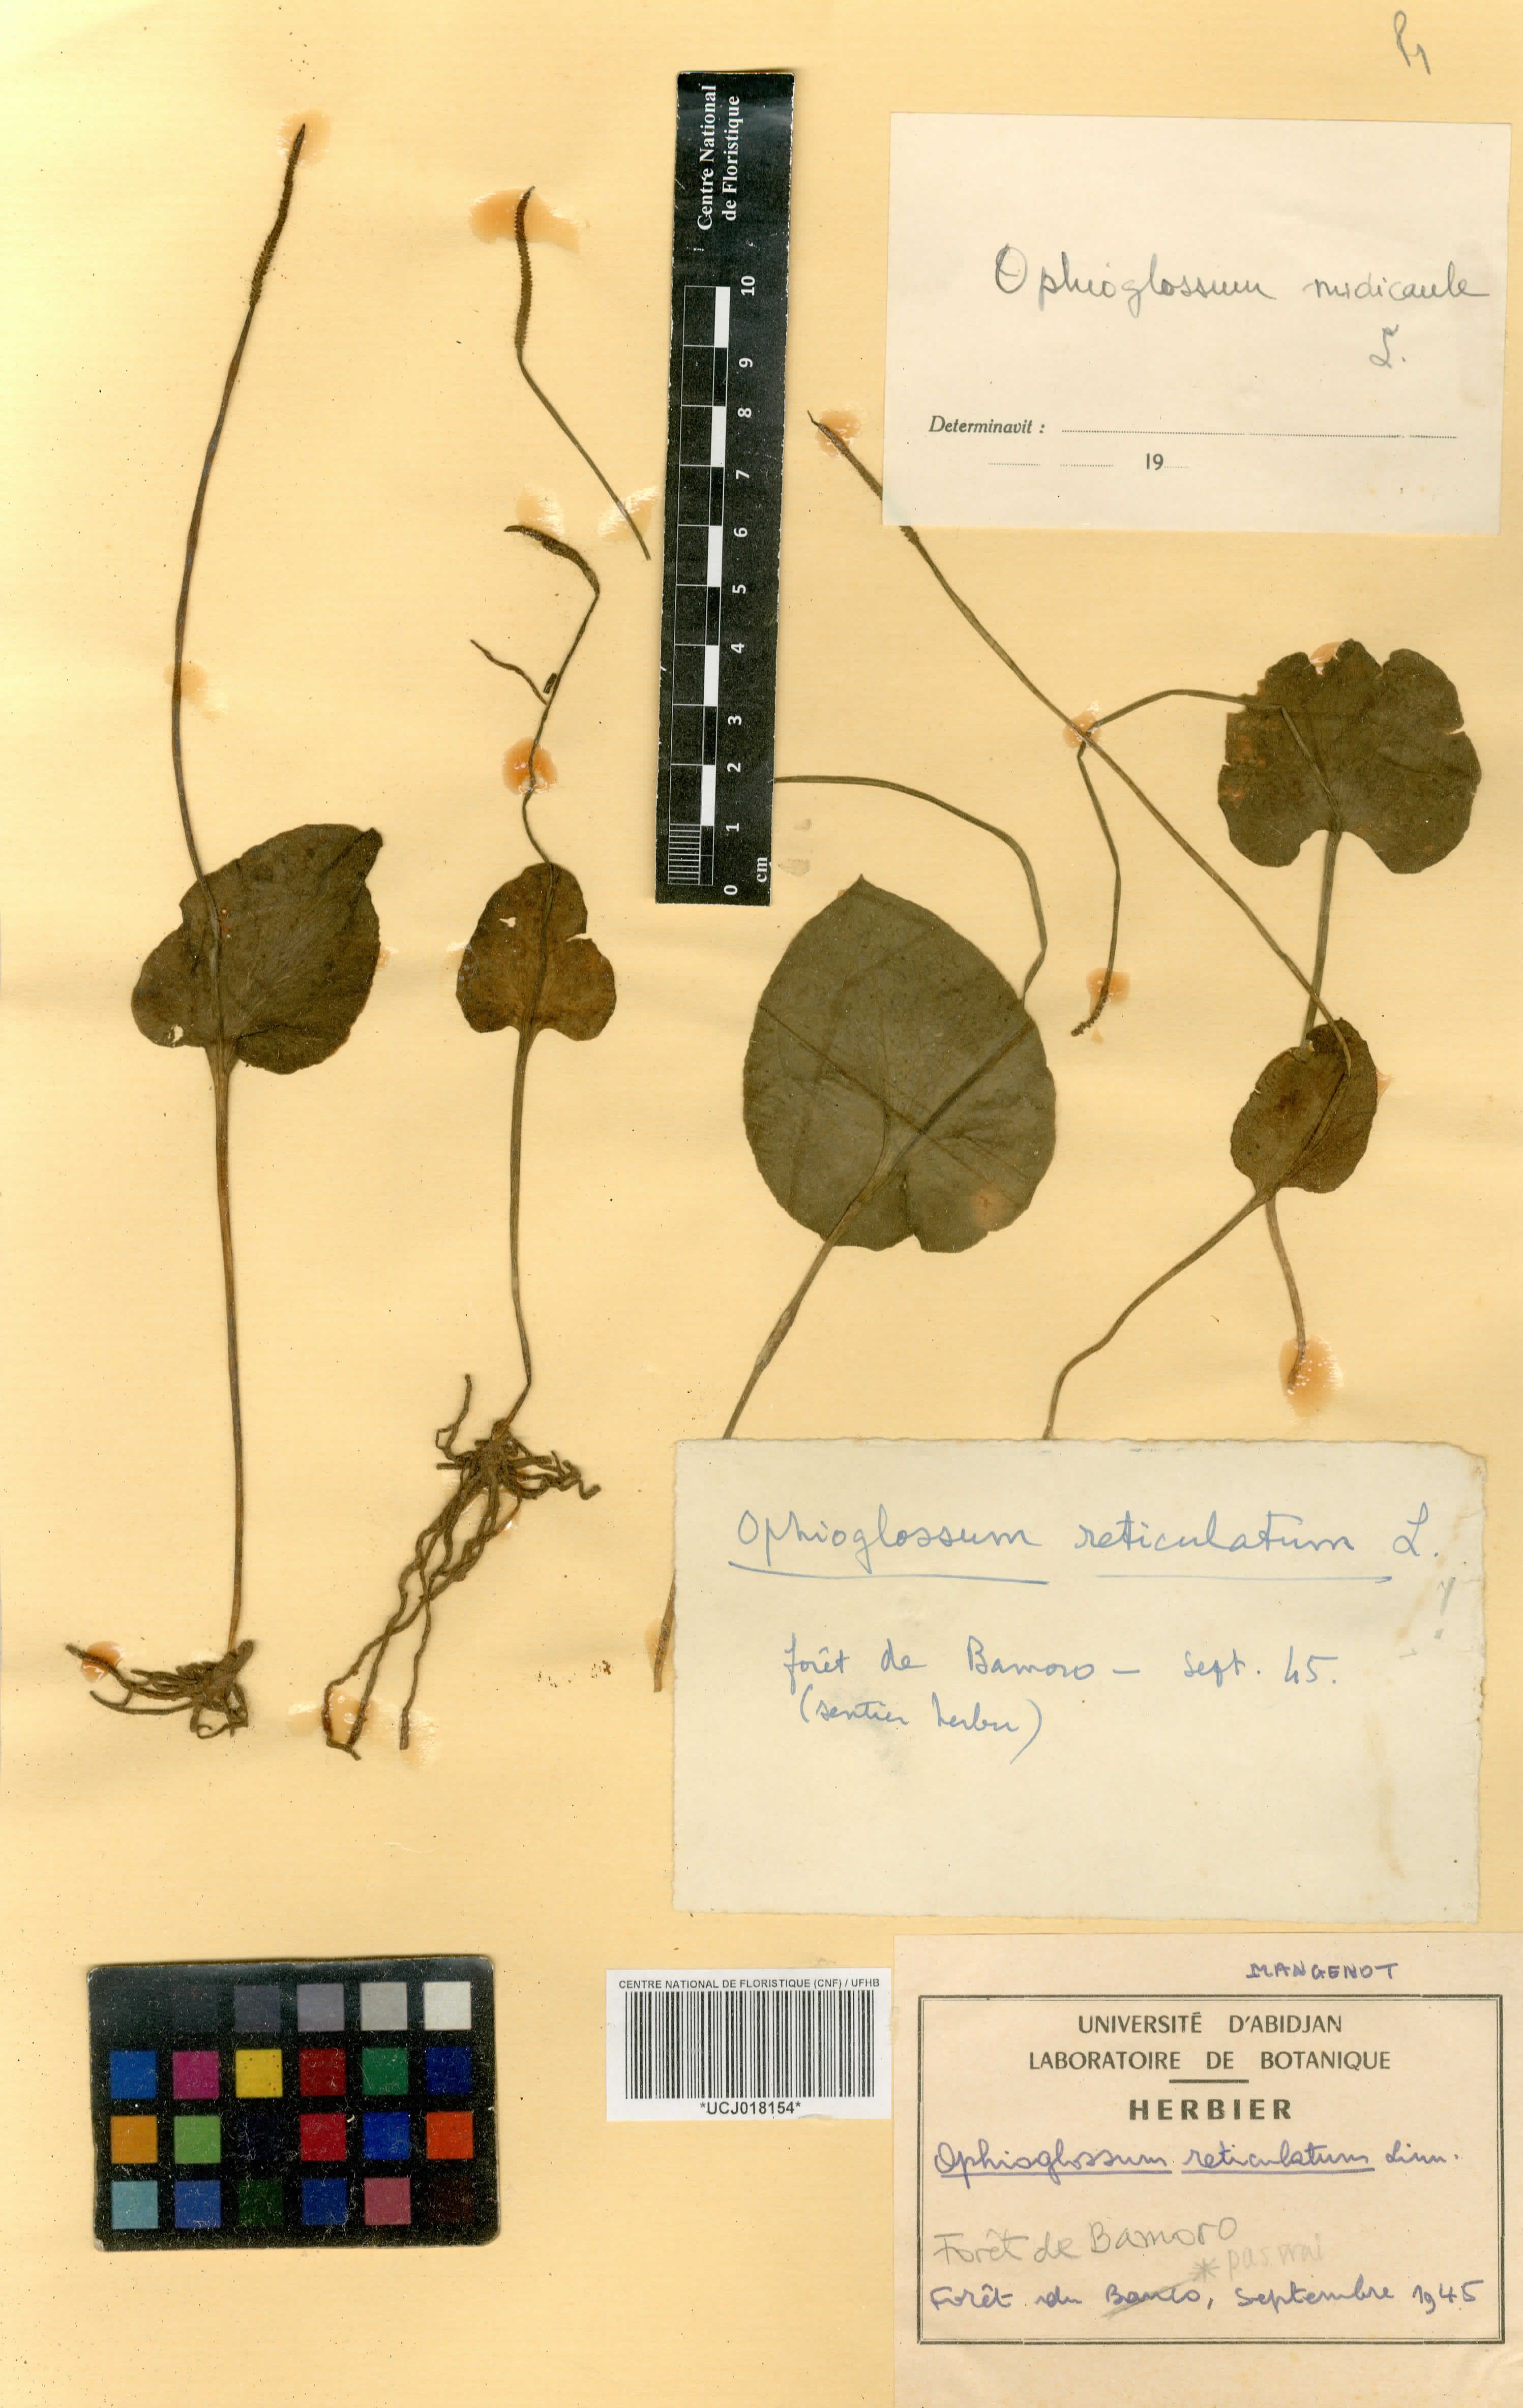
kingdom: Plantae
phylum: Tracheophyta
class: Polypodiopsida
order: Ophioglossales
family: Ophioglossaceae
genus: Ophioglossum
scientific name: Ophioglossum reticulatum
